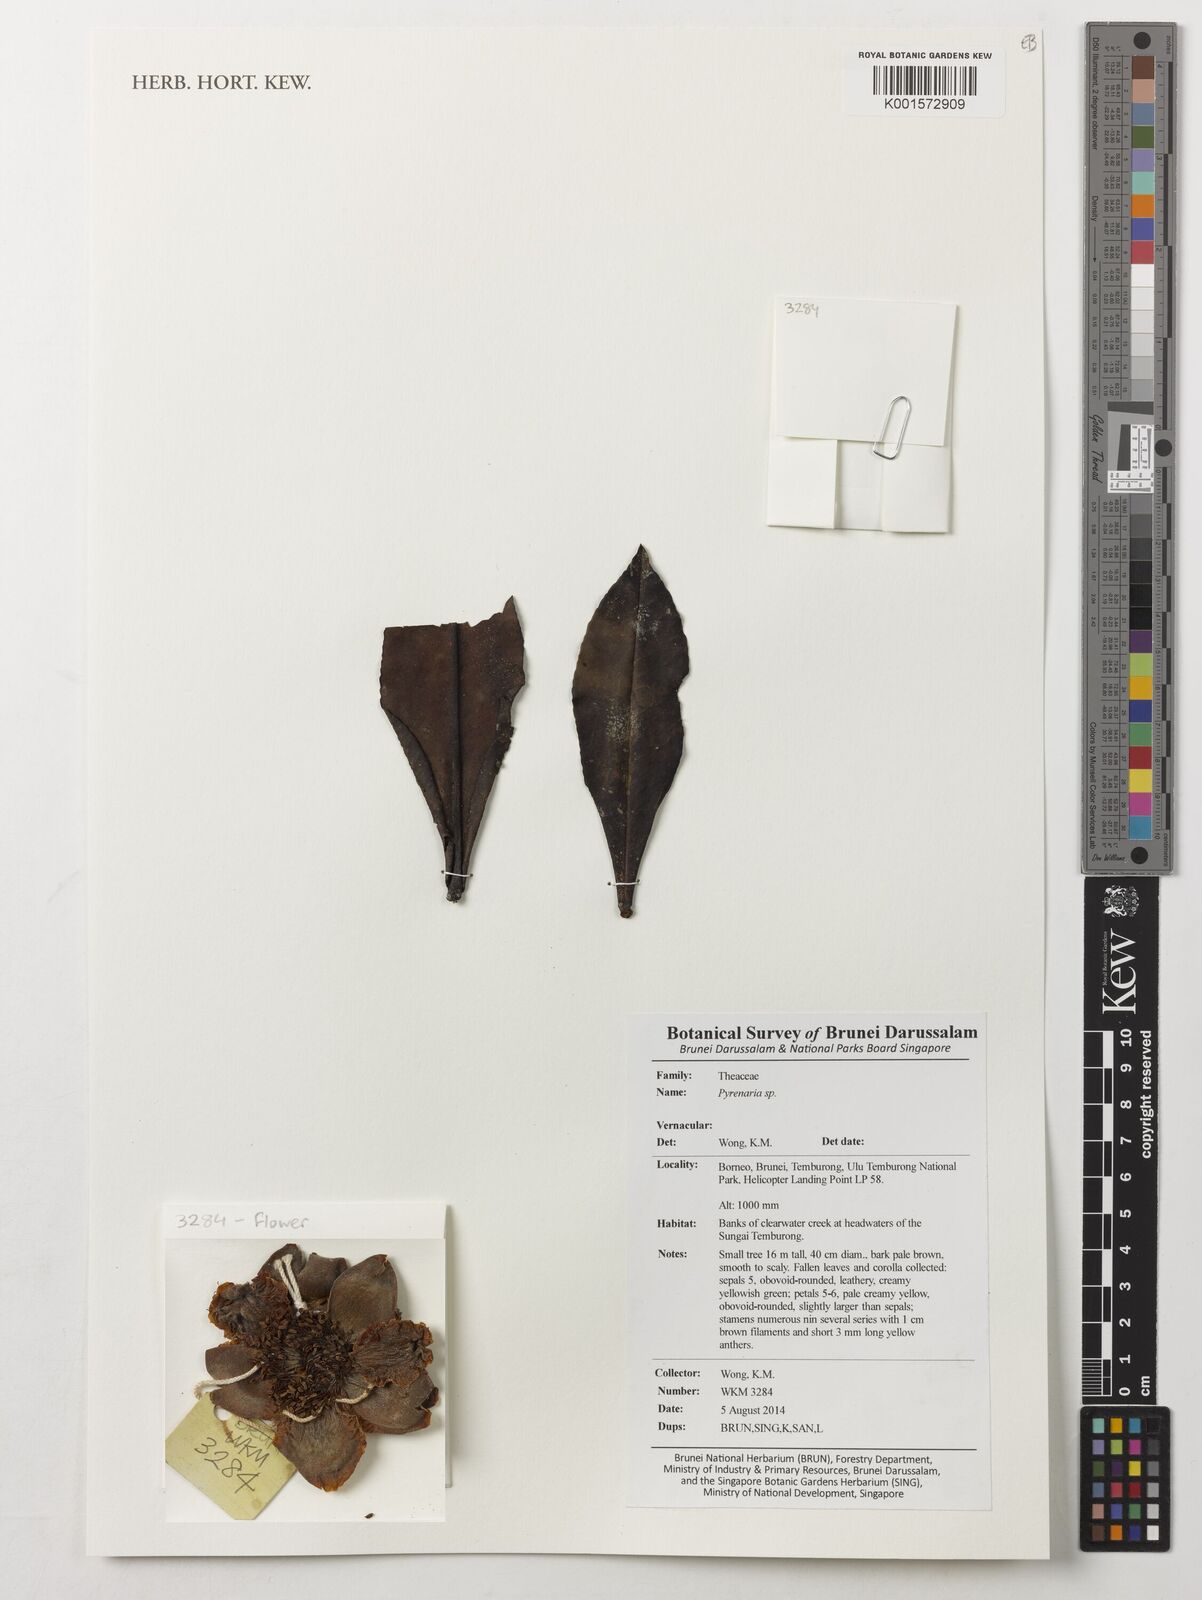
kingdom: Plantae
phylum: Tracheophyta
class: Magnoliopsida
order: Ericales
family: Theaceae
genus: Pyrenaria
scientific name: Pyrenaria
